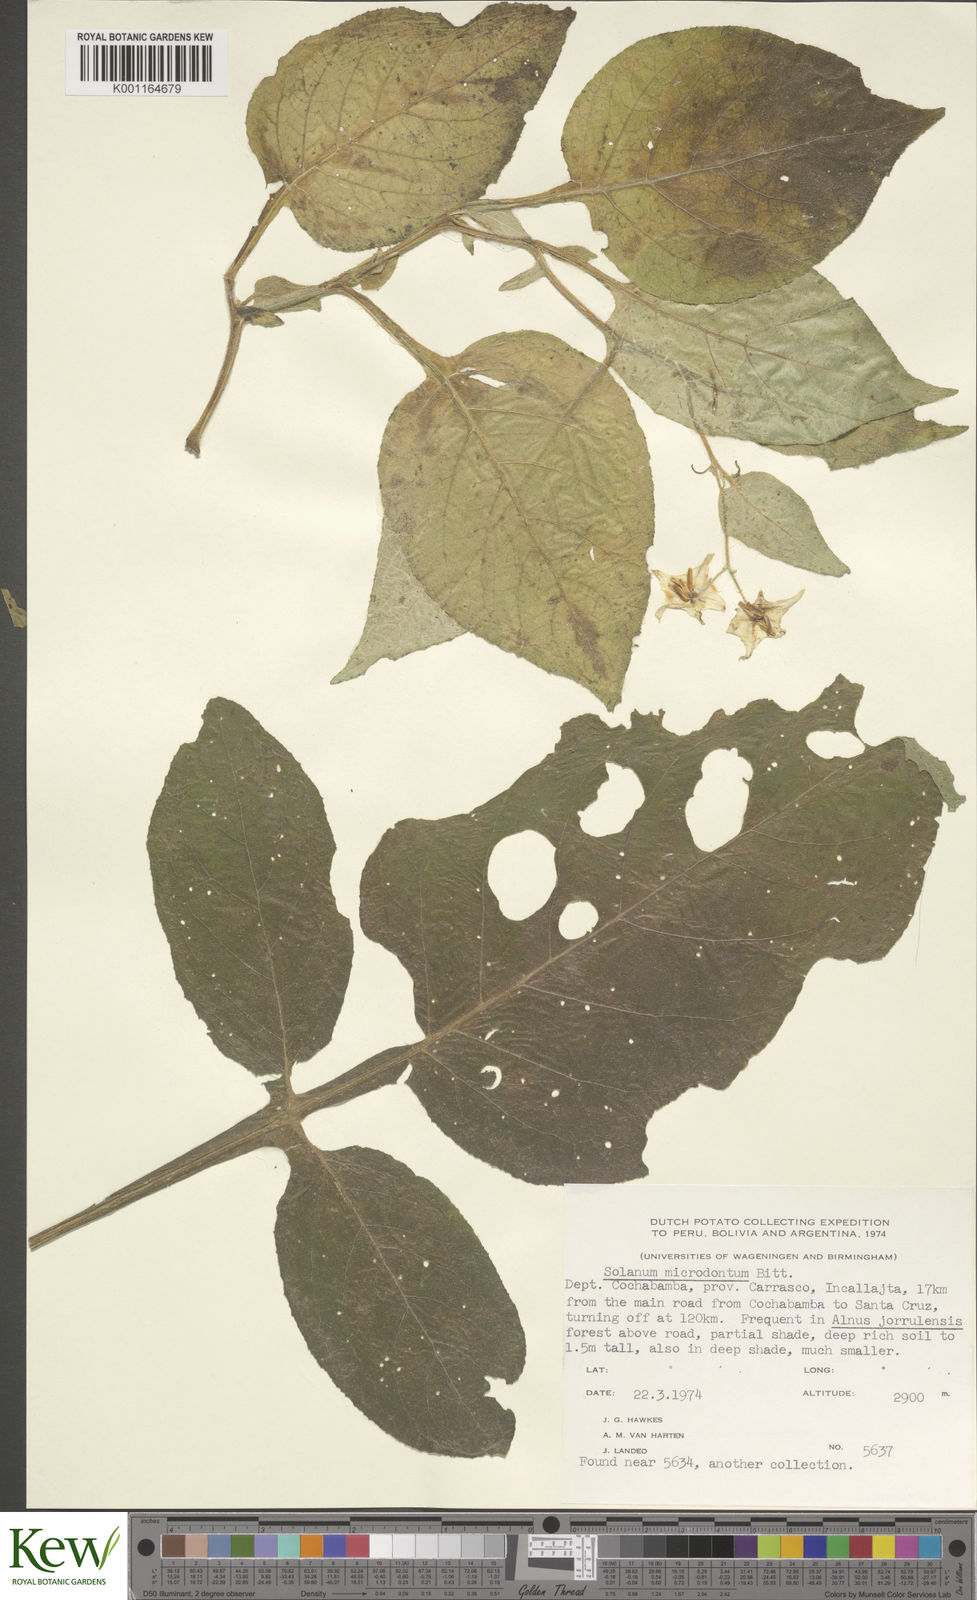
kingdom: Plantae
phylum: Tracheophyta
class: Magnoliopsida
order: Solanales
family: Solanaceae
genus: Solanum
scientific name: Solanum microdontum
